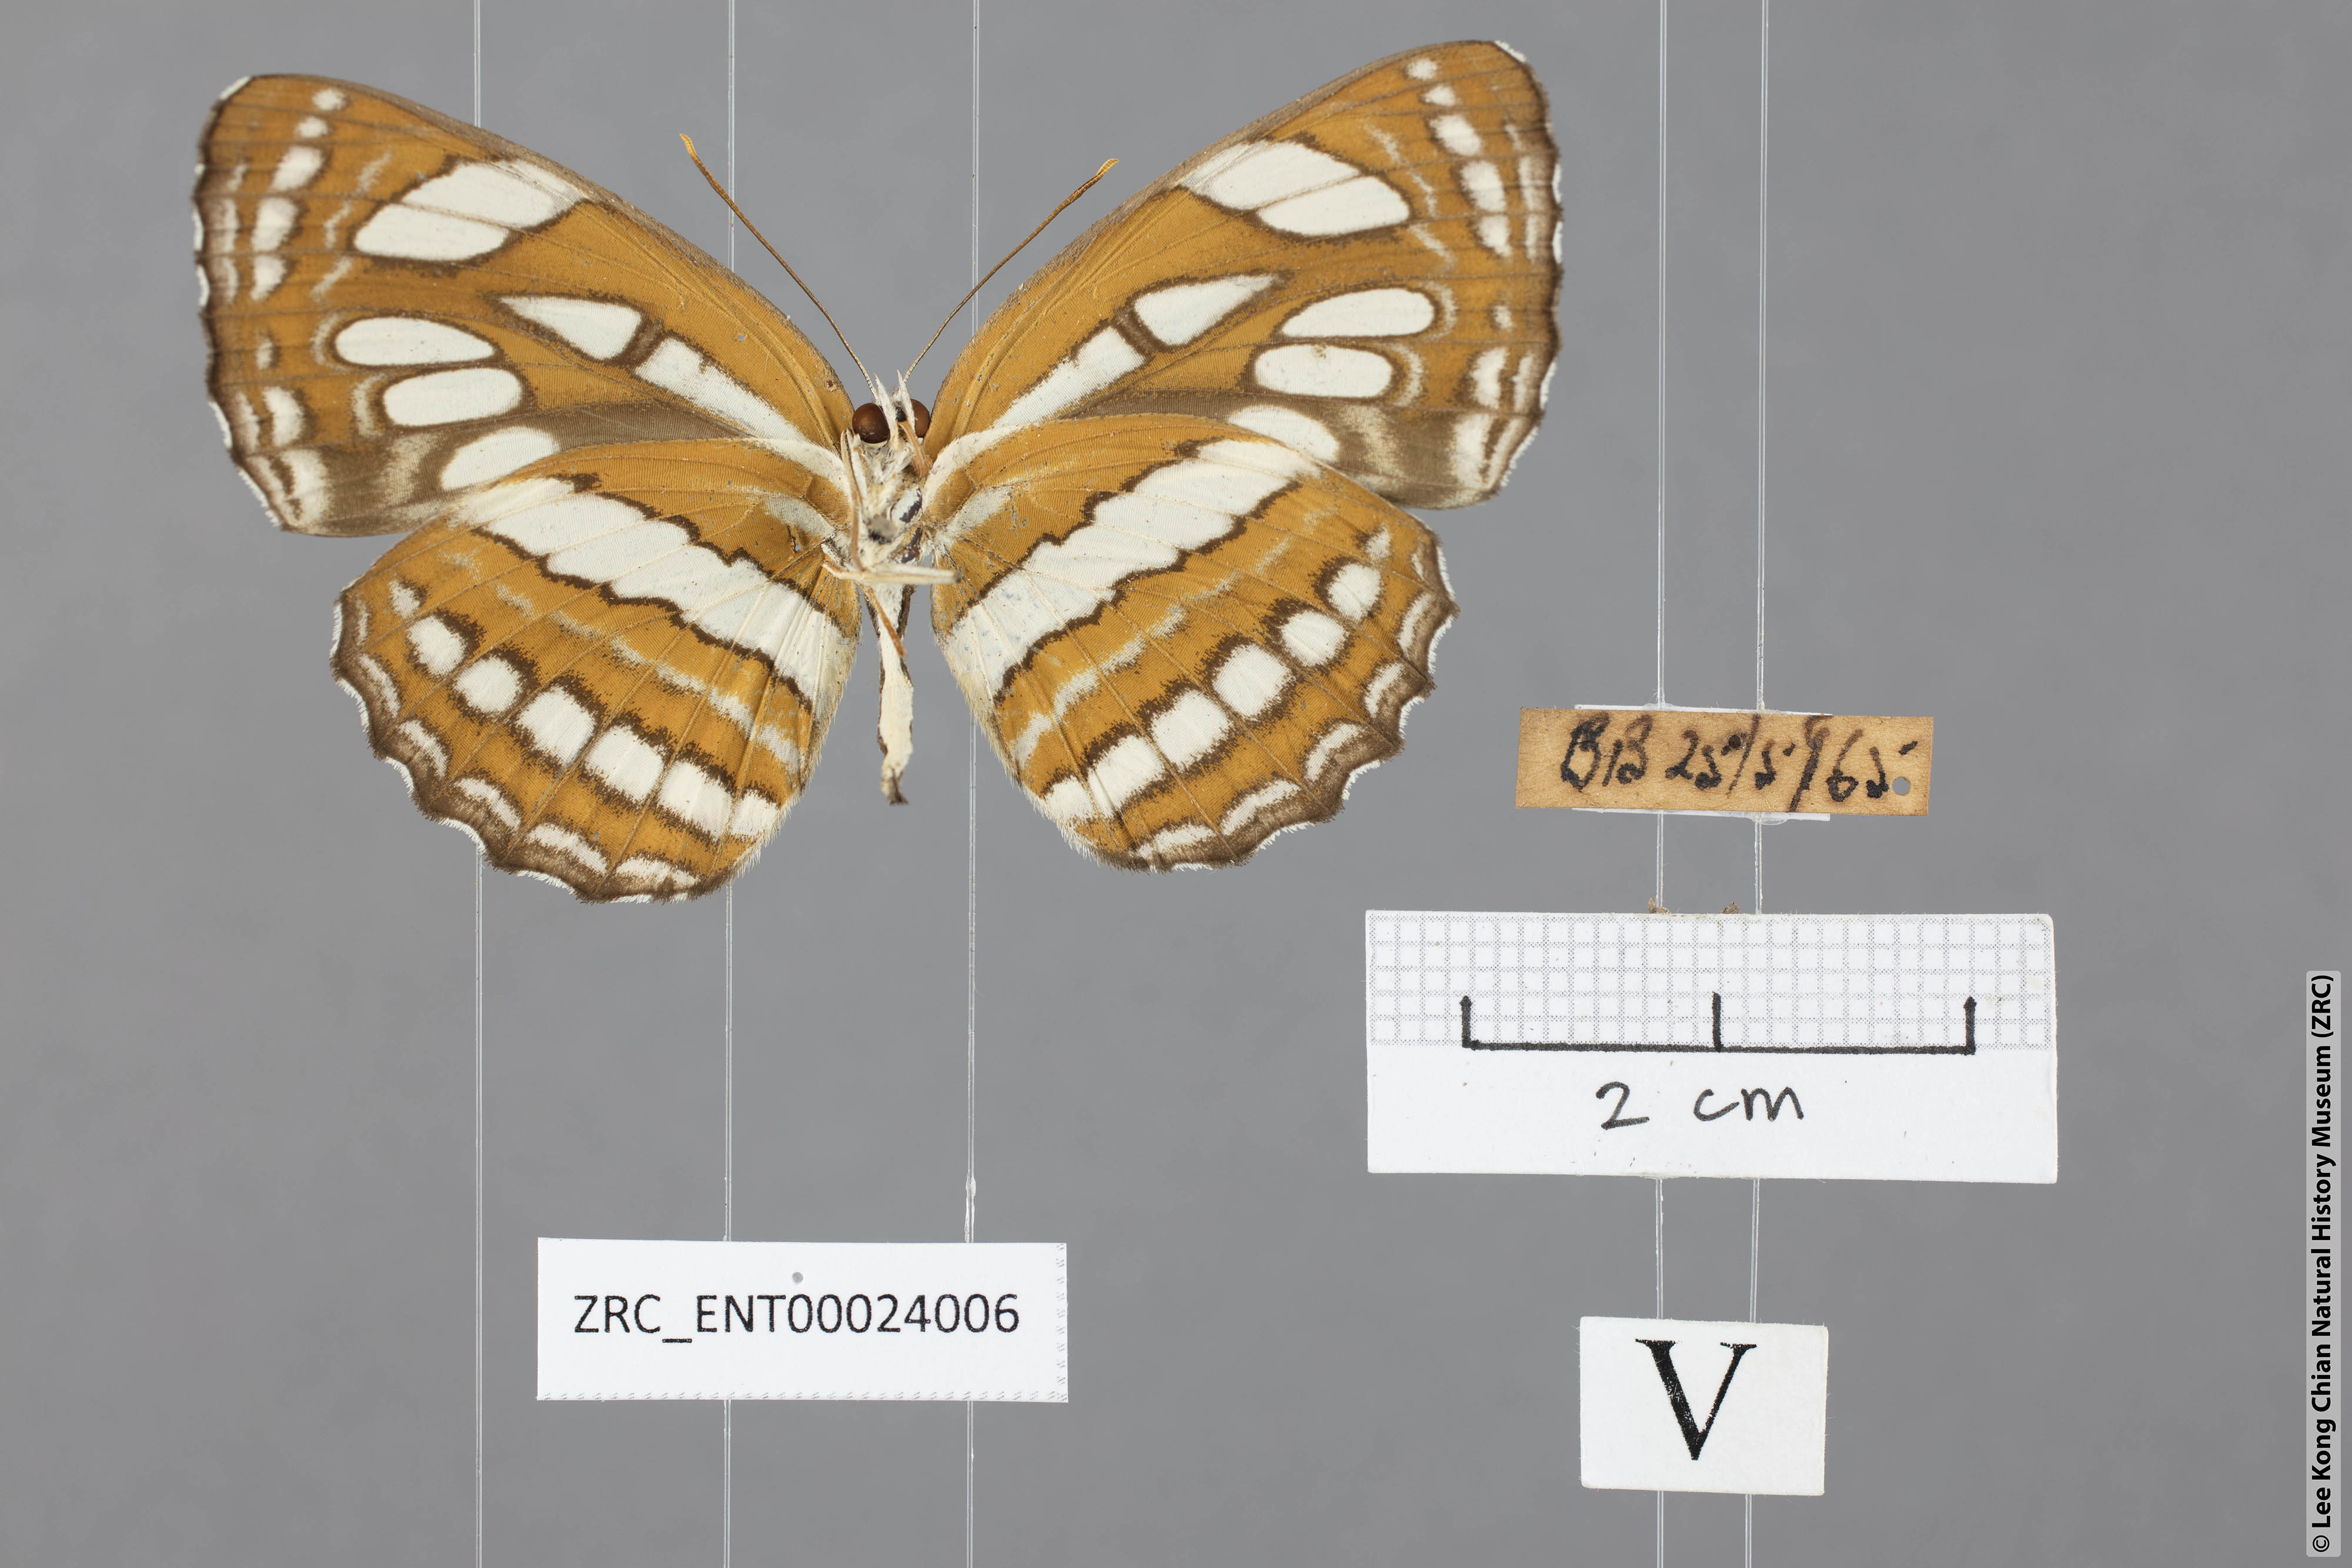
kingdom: Animalia
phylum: Arthropoda
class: Insecta
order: Lepidoptera
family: Nymphalidae
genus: Neptis
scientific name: Neptis hylas
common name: Common sailer
